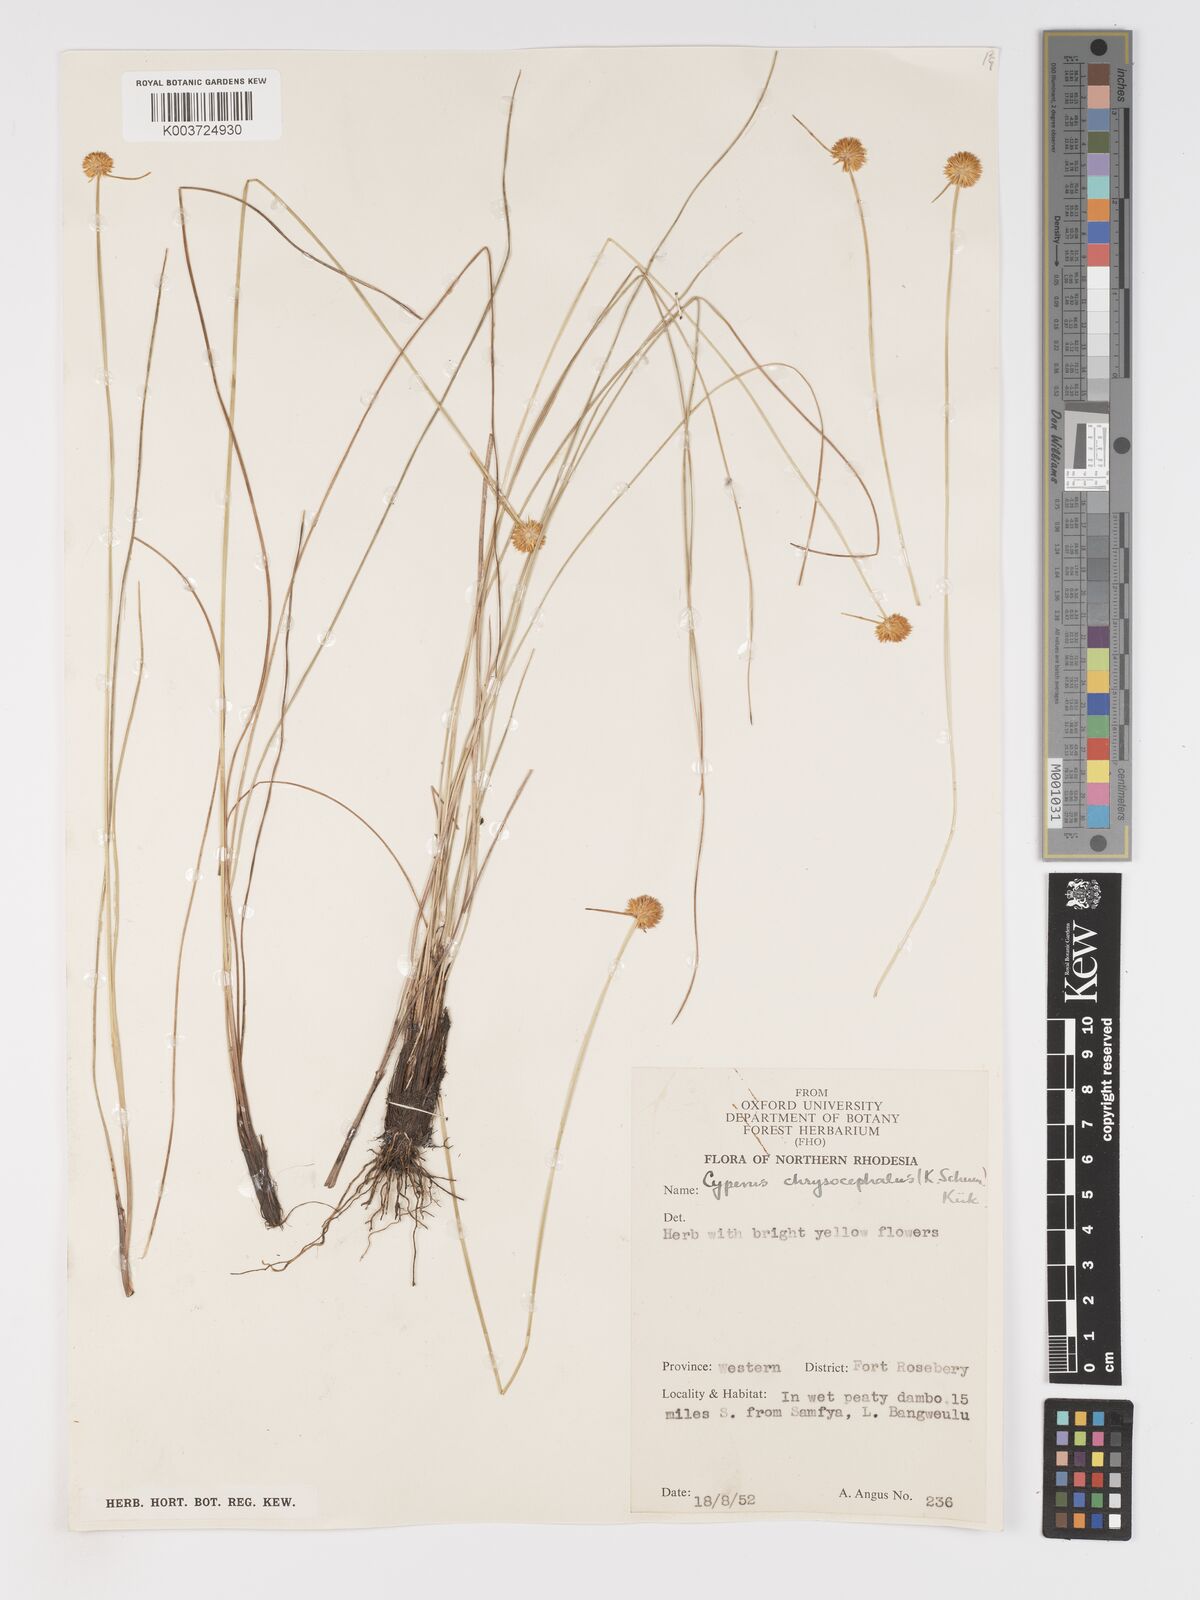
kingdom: Plantae
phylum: Tracheophyta
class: Liliopsida
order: Poales
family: Cyperaceae
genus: Cyperus
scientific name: Cyperus chrysocephalus
